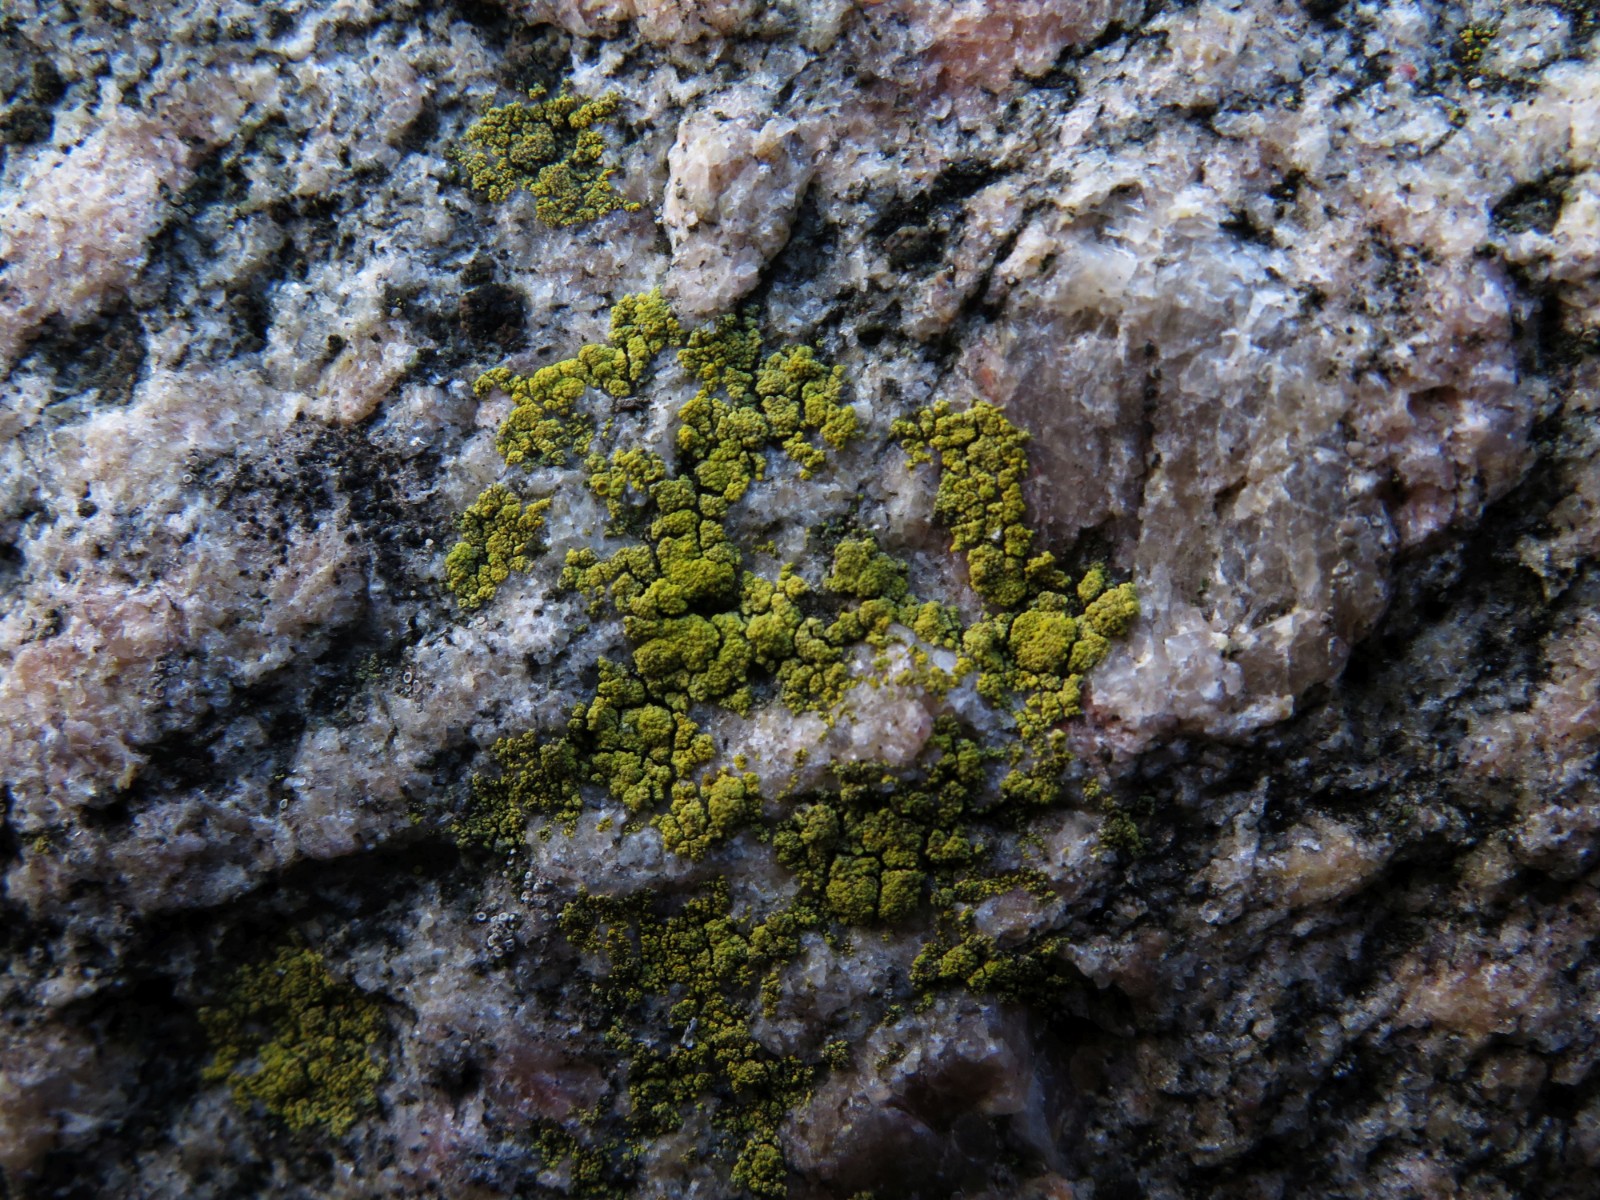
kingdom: Fungi
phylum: Ascomycota
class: Candelariomycetes
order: Candelariales
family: Candelariaceae
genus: Candelariella
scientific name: Candelariella vitellina
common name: almindelig æggeblommelav
